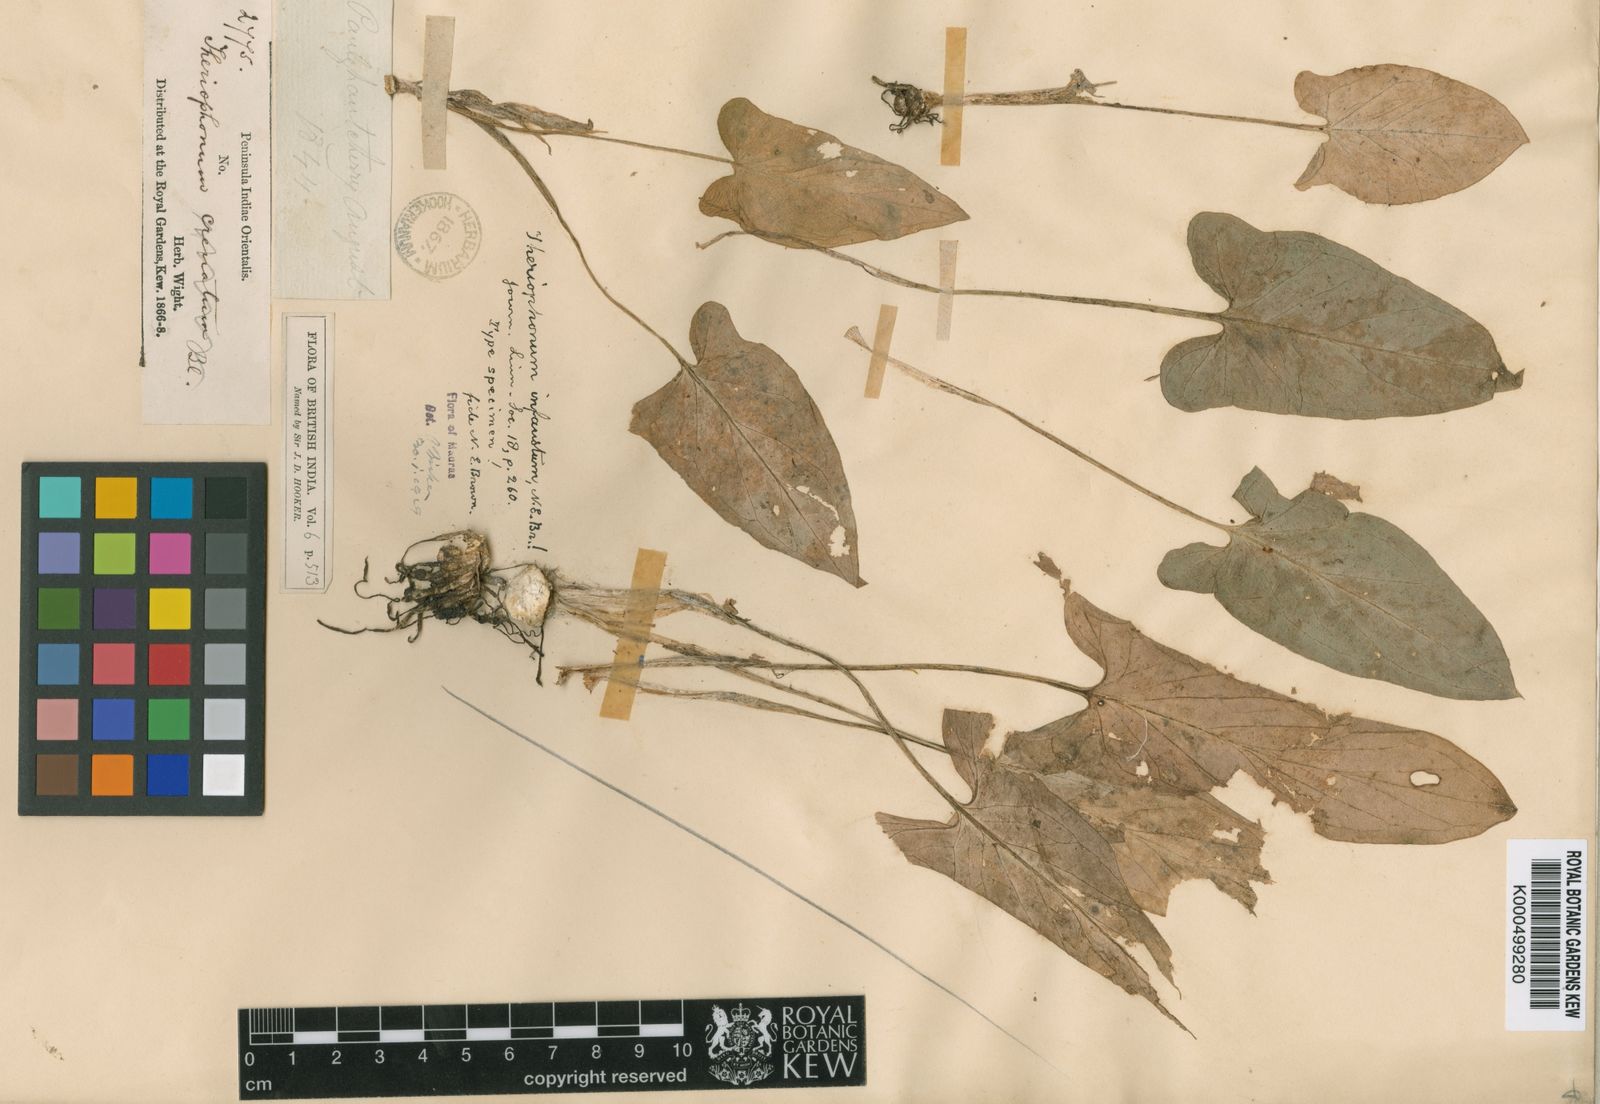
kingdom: Plantae
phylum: Tracheophyta
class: Liliopsida
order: Alismatales
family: Araceae
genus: Theriophonum
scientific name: Theriophonum
